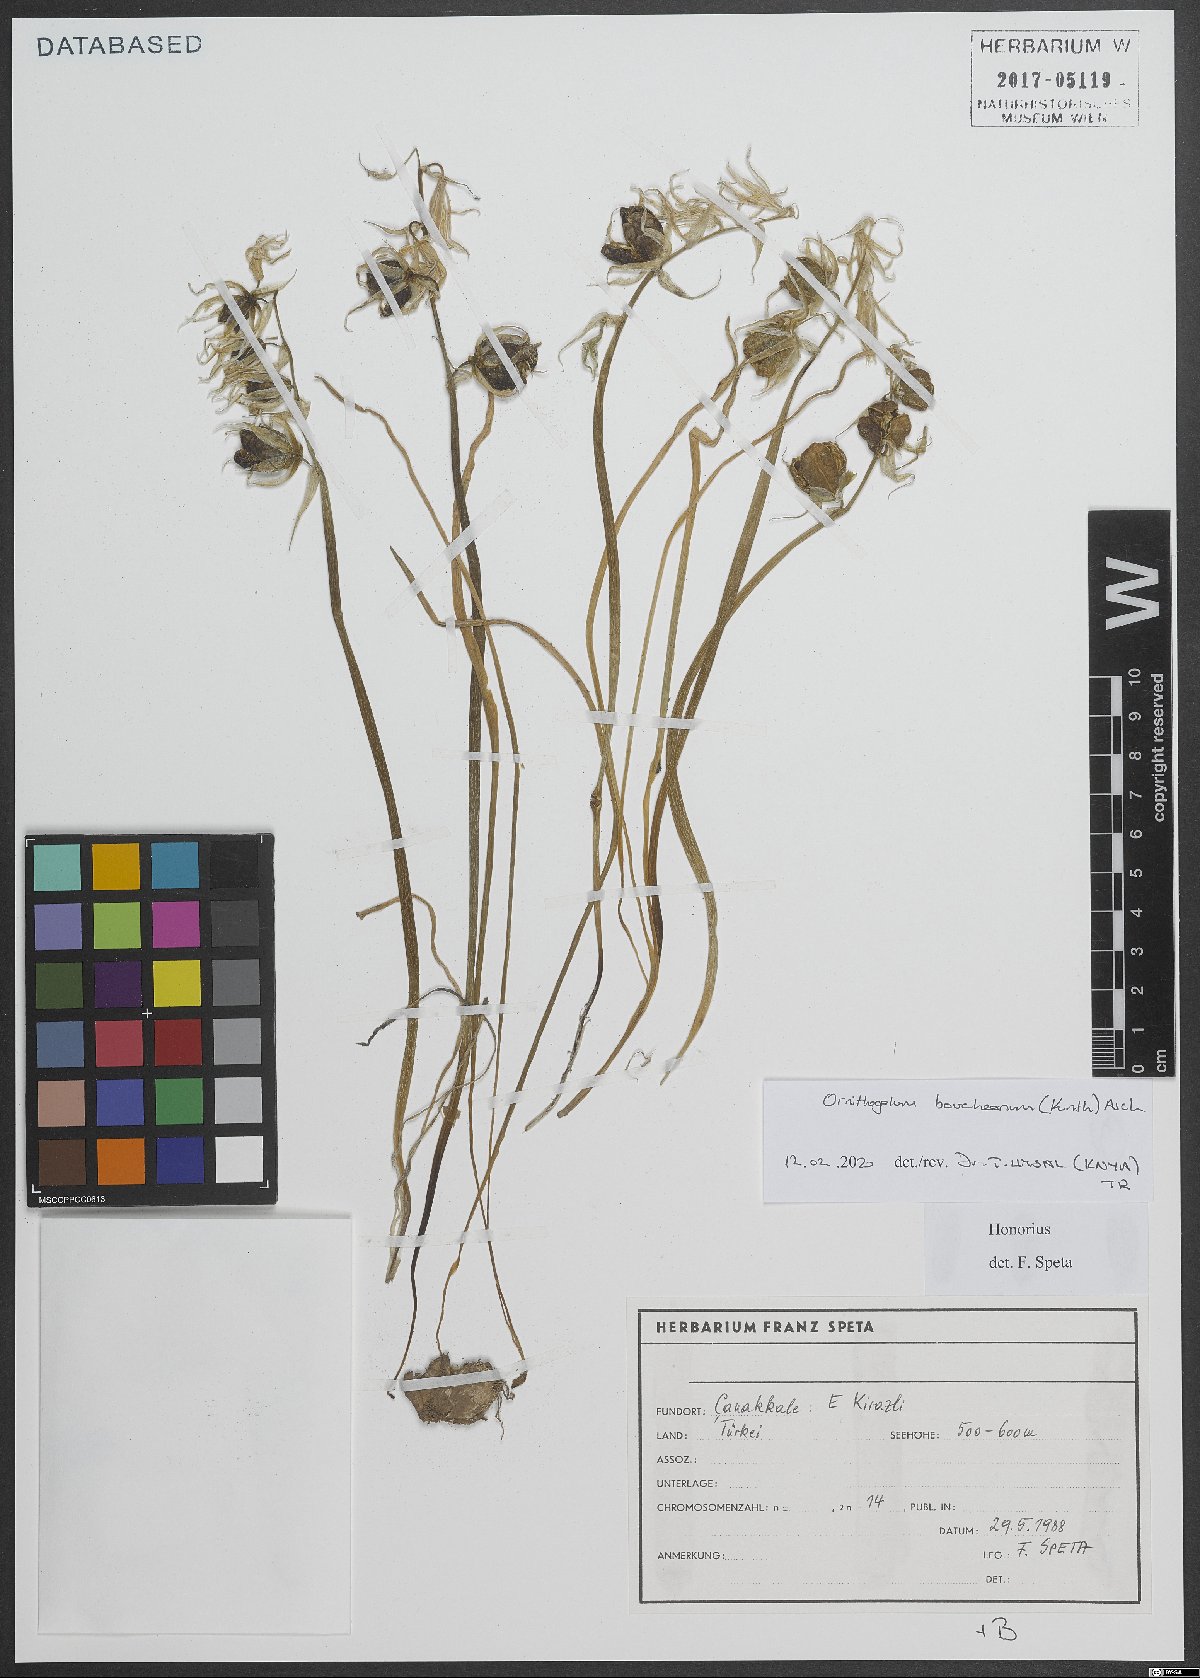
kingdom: Plantae
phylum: Tracheophyta
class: Liliopsida
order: Asparagales
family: Asparagaceae
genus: Ornithogalum
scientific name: Ornithogalum boucheanum
